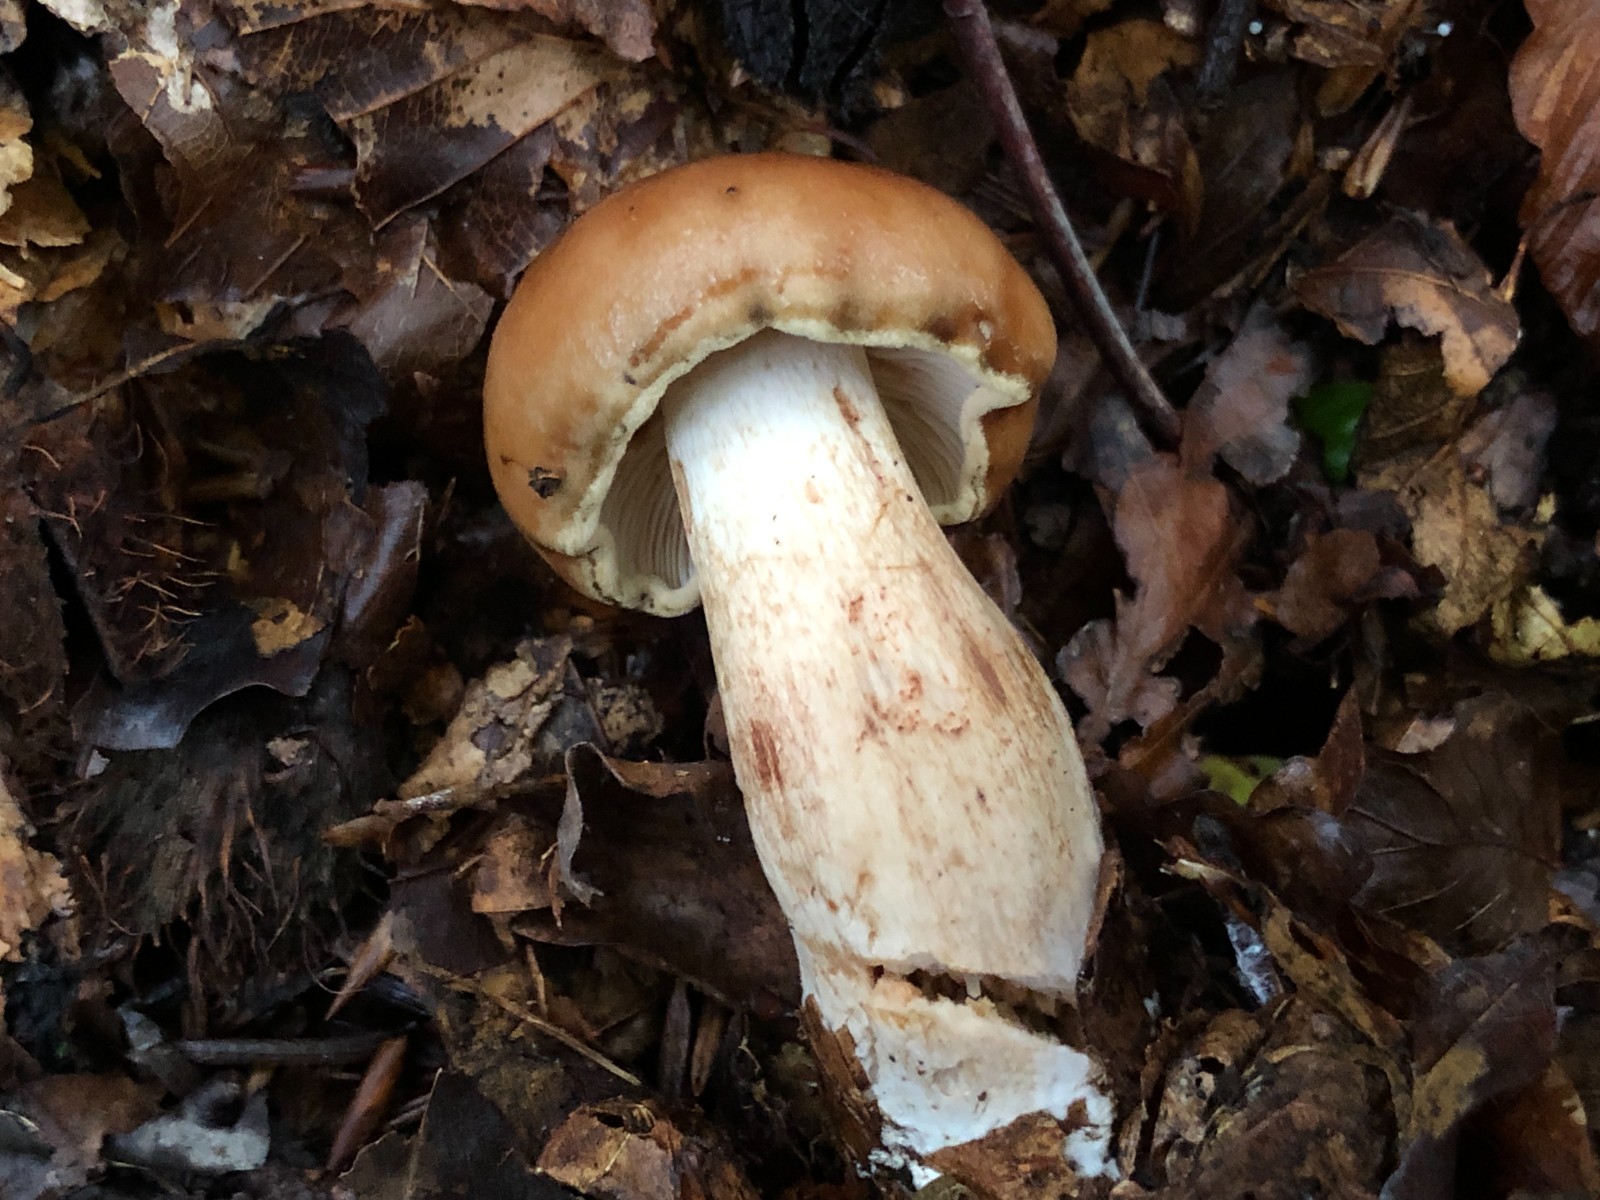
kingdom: Fungi
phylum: Basidiomycota
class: Agaricomycetes
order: Agaricales
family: Tricholomataceae
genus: Tricholoma
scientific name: Tricholoma ustale
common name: sveden ridderhat
